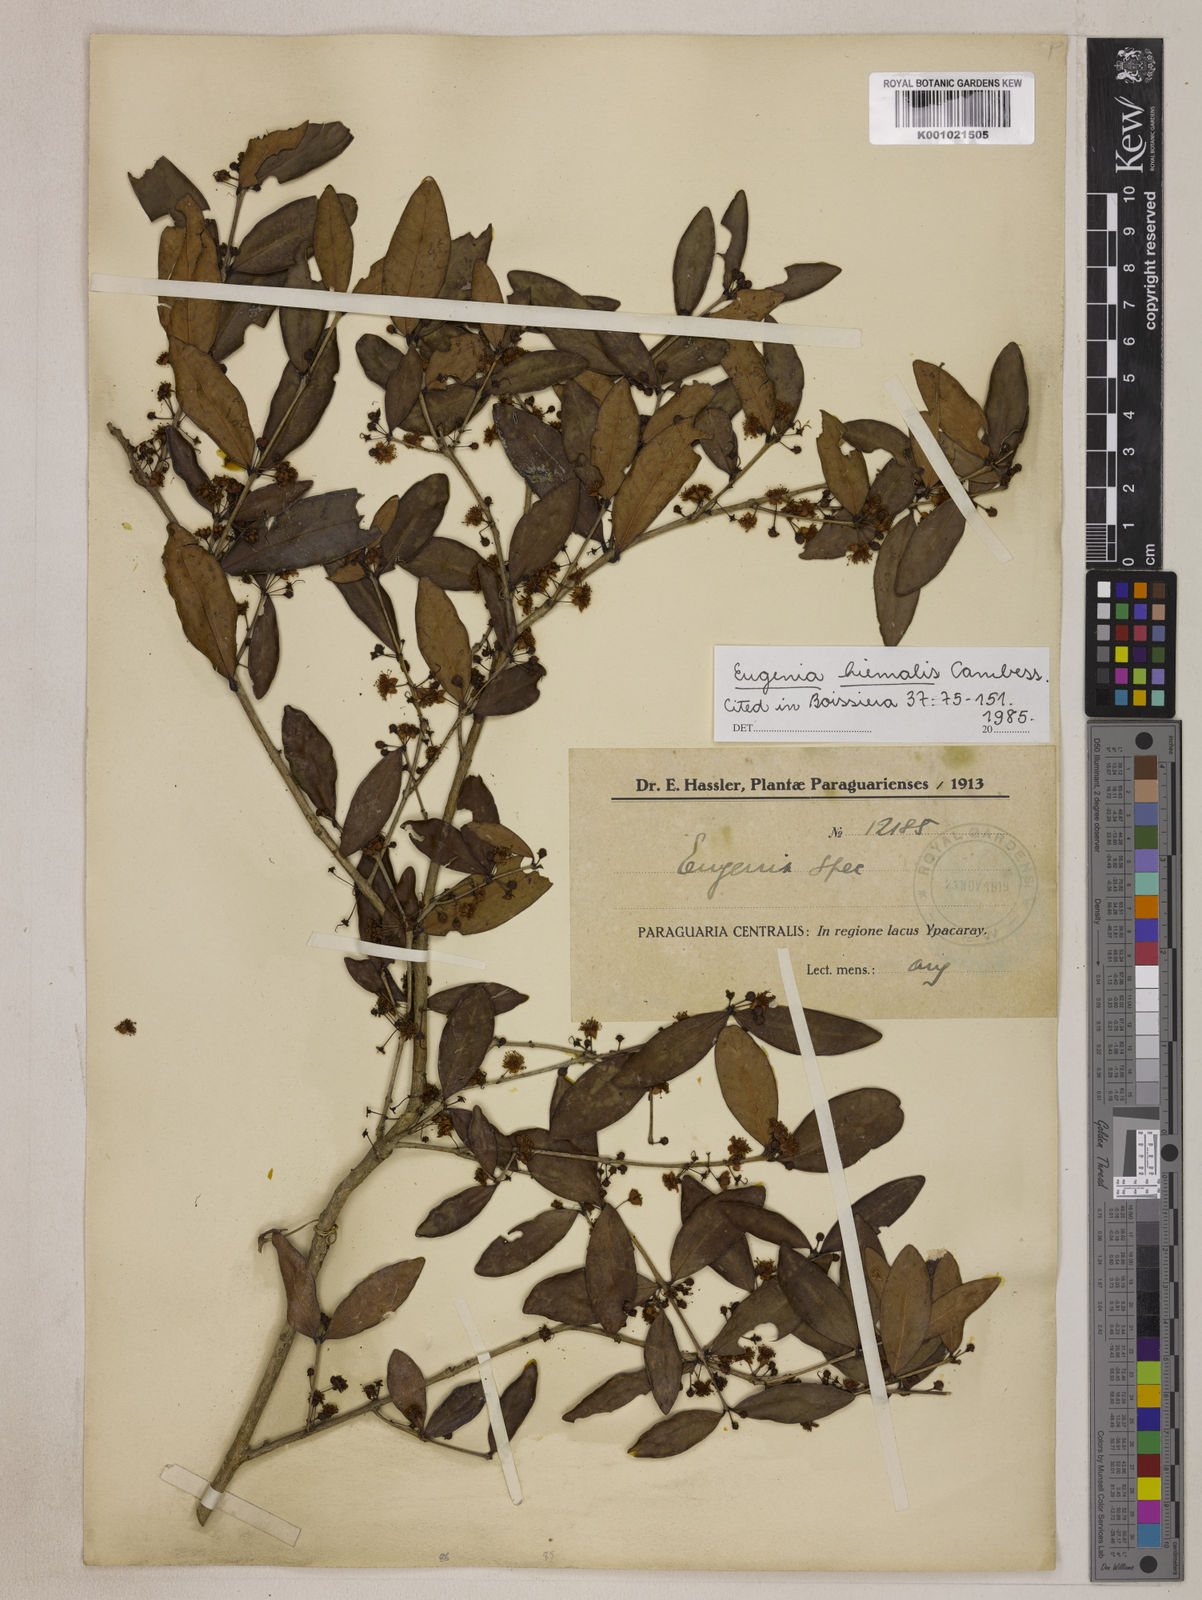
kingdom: Plantae
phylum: Tracheophyta
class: Magnoliopsida
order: Myrtales
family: Myrtaceae
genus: Eugenia
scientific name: Eugenia hiemalis
